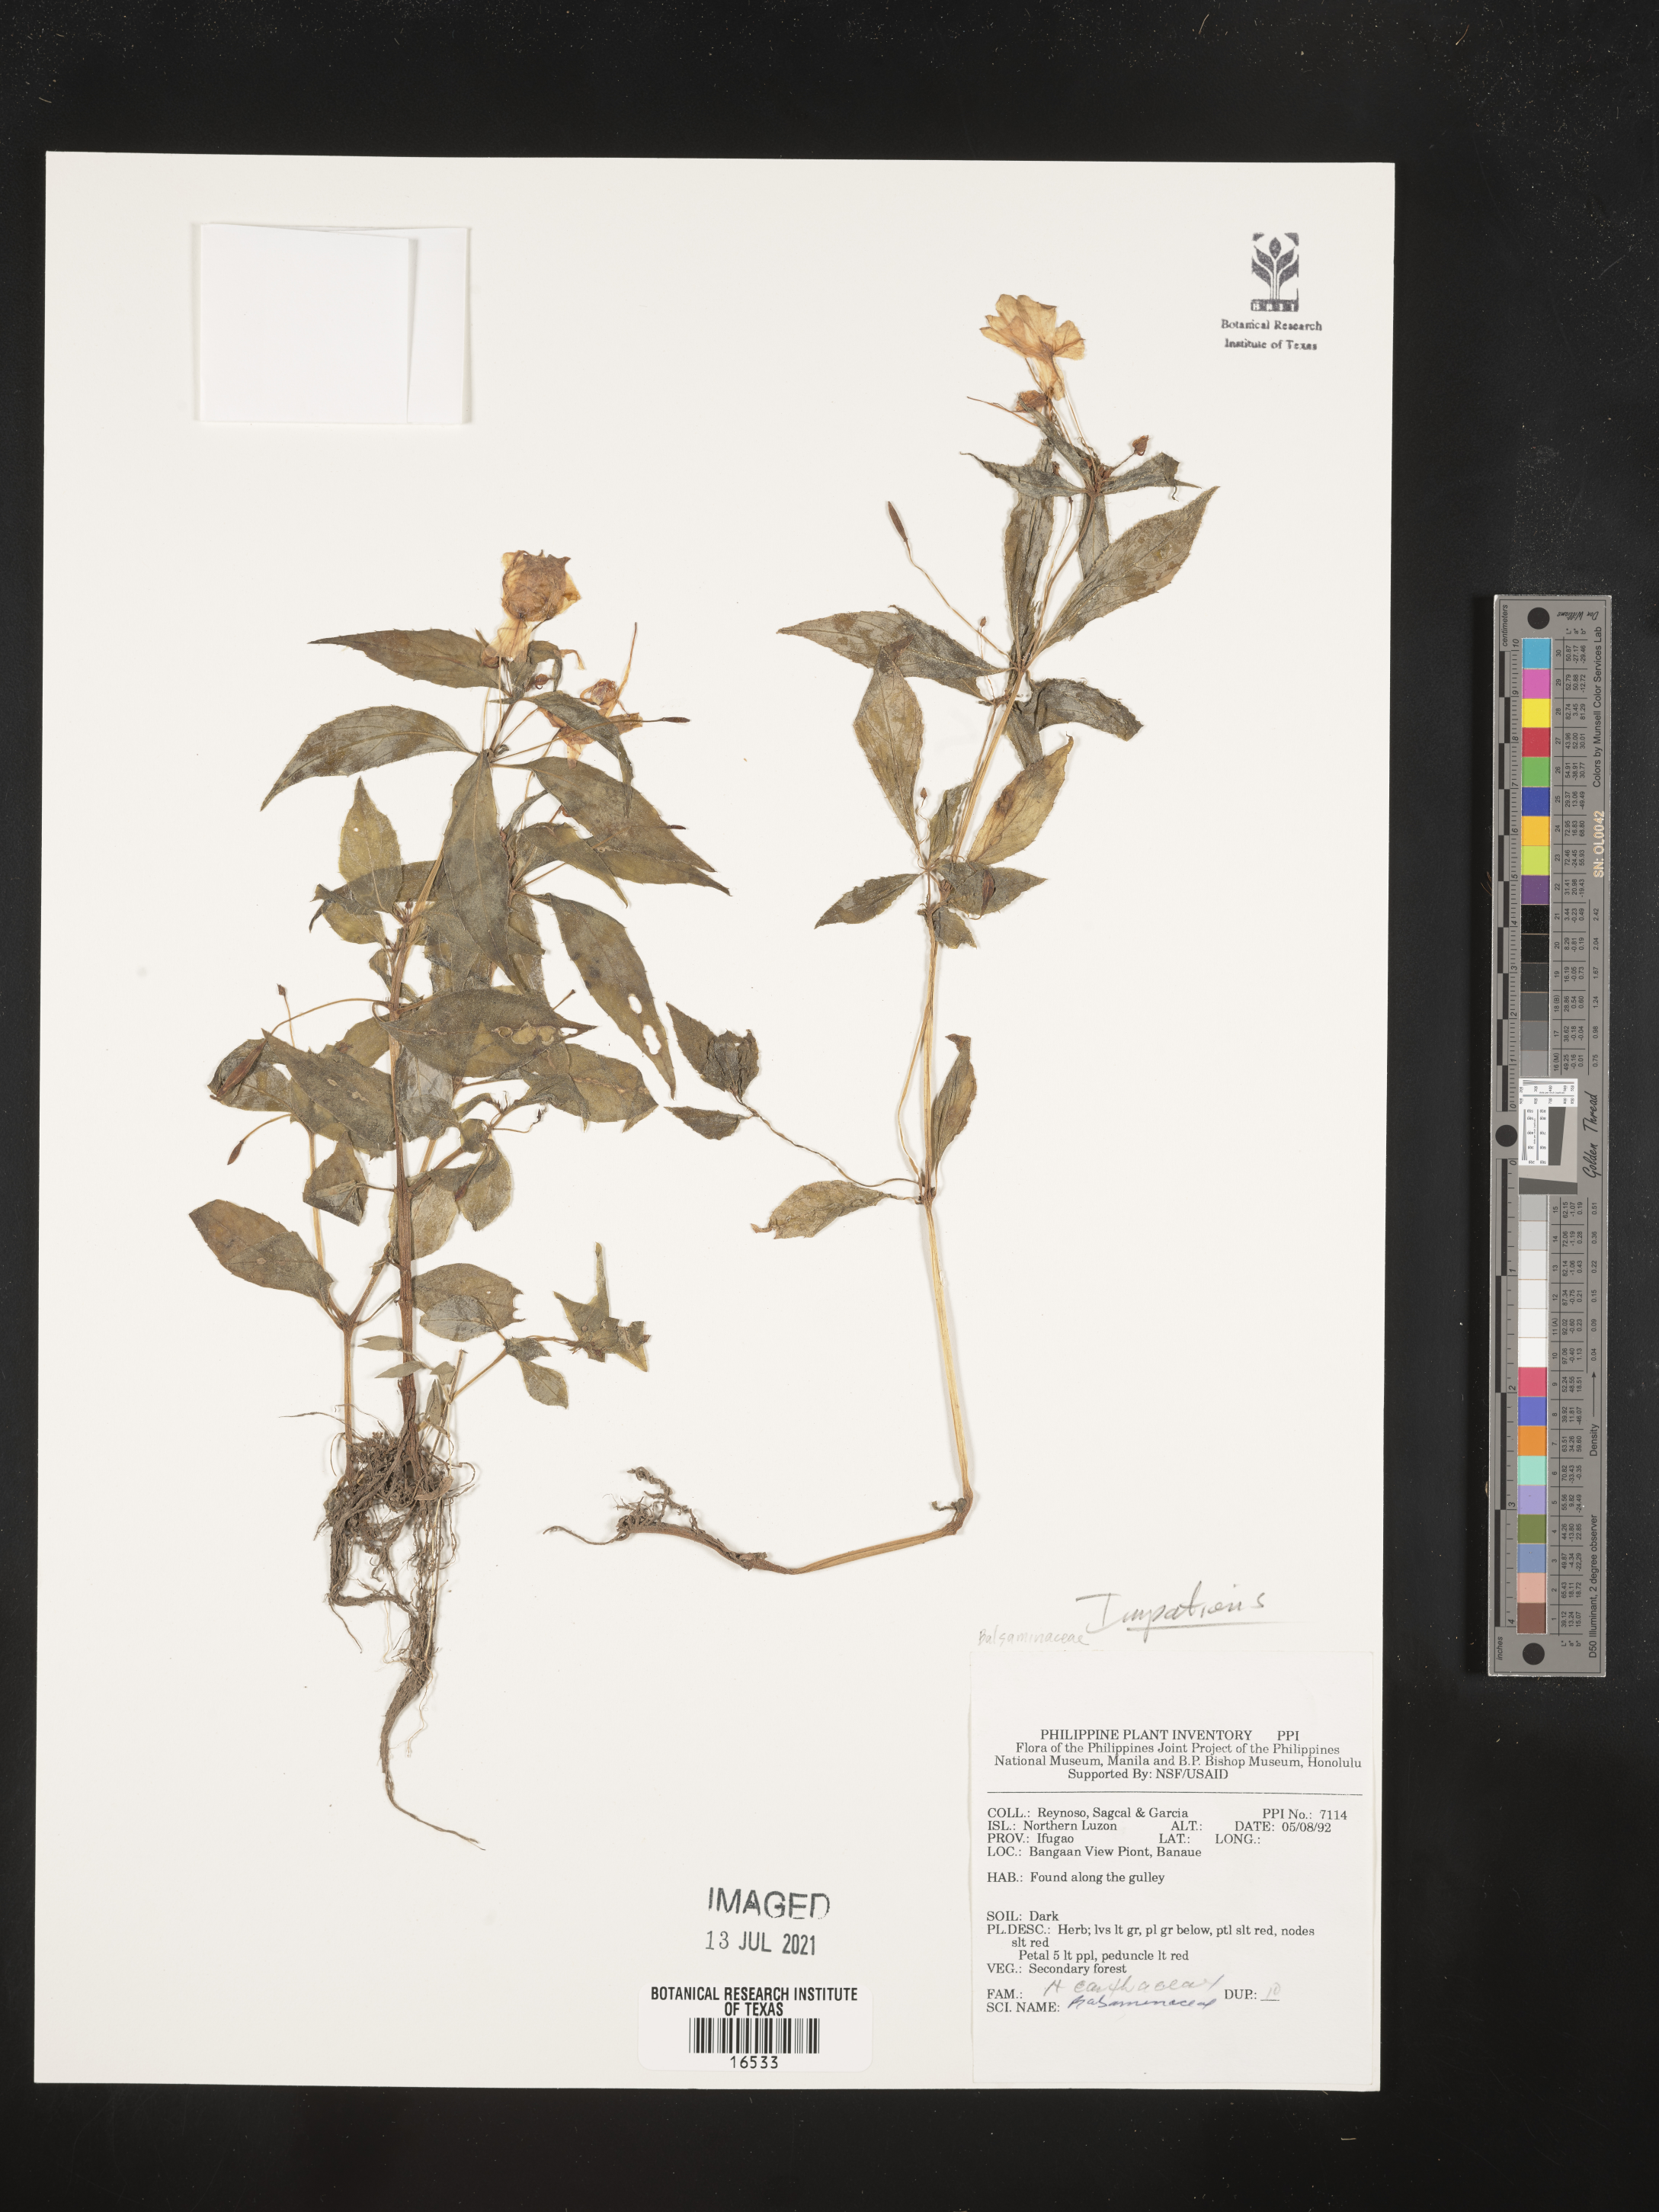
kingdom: Plantae
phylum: Tracheophyta
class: Magnoliopsida
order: Ericales
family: Balsaminaceae
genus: Impatiens
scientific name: Impatiens
